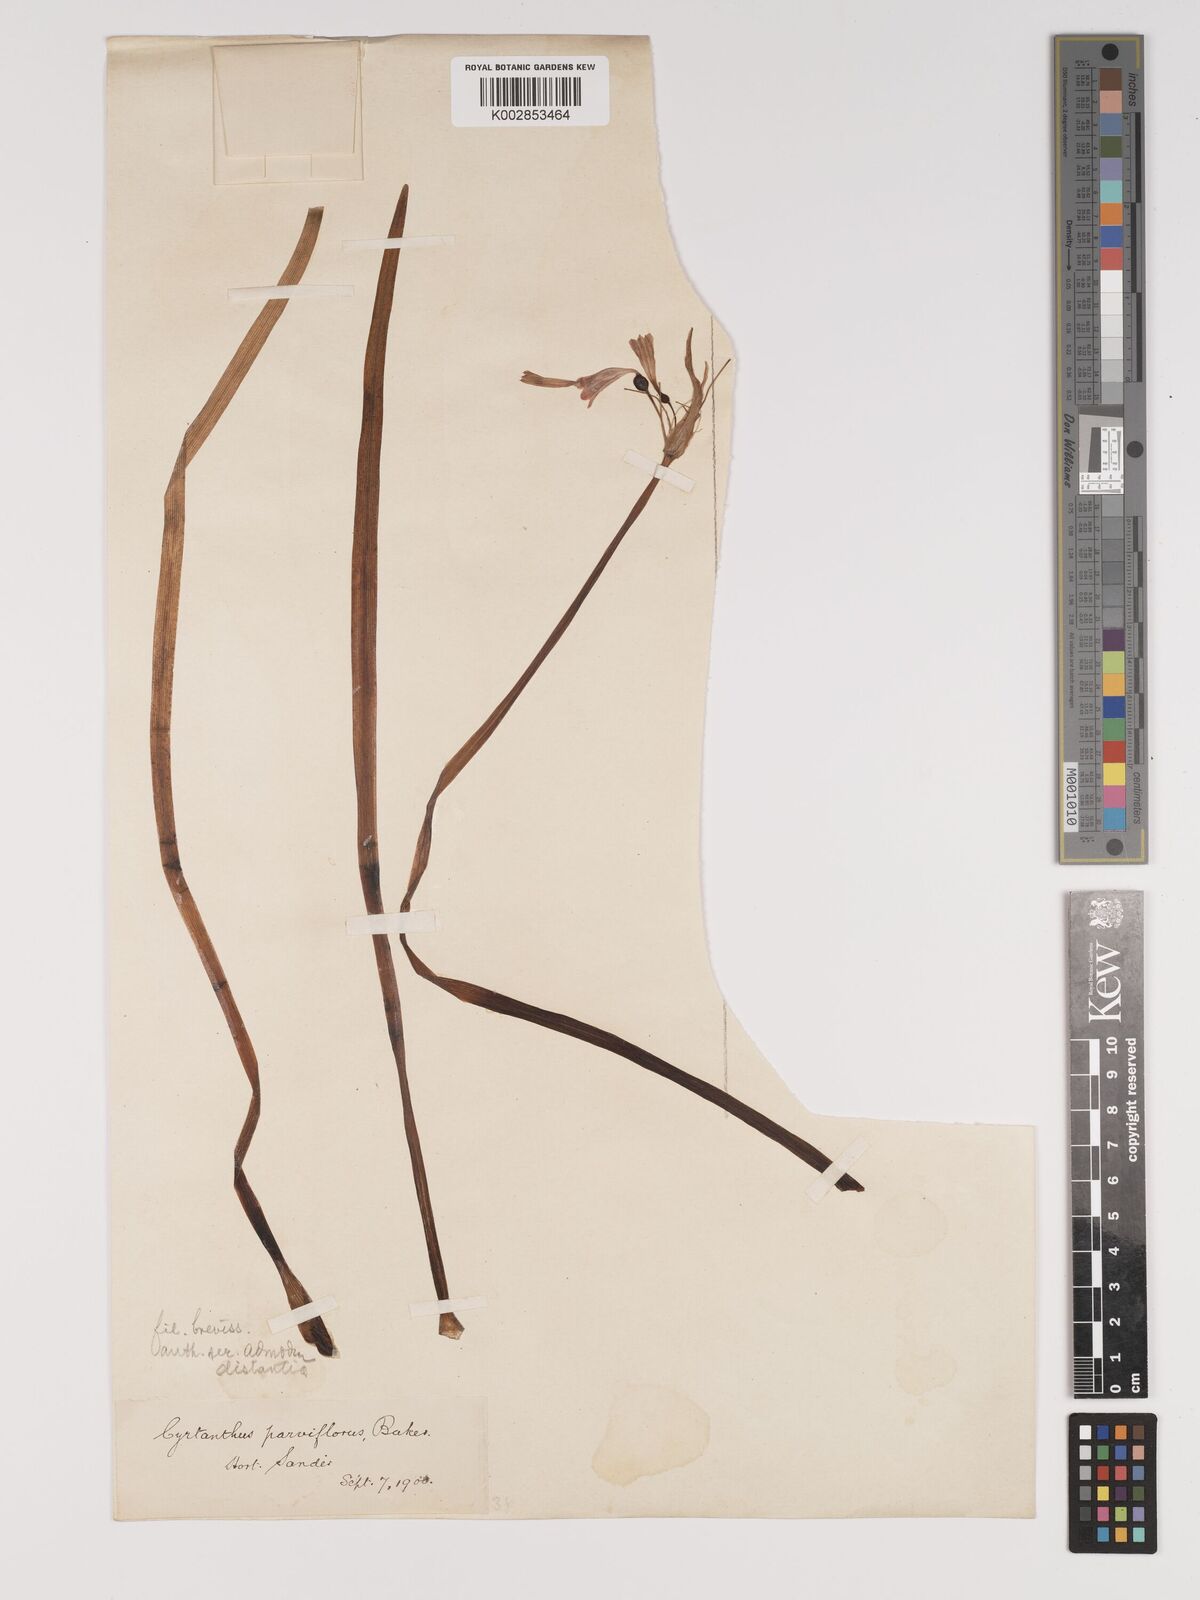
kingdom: Plantae
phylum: Tracheophyta
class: Liliopsida
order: Asparagales
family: Amaryllidaceae
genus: Cyrtanthus
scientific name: Cyrtanthus bicolor
